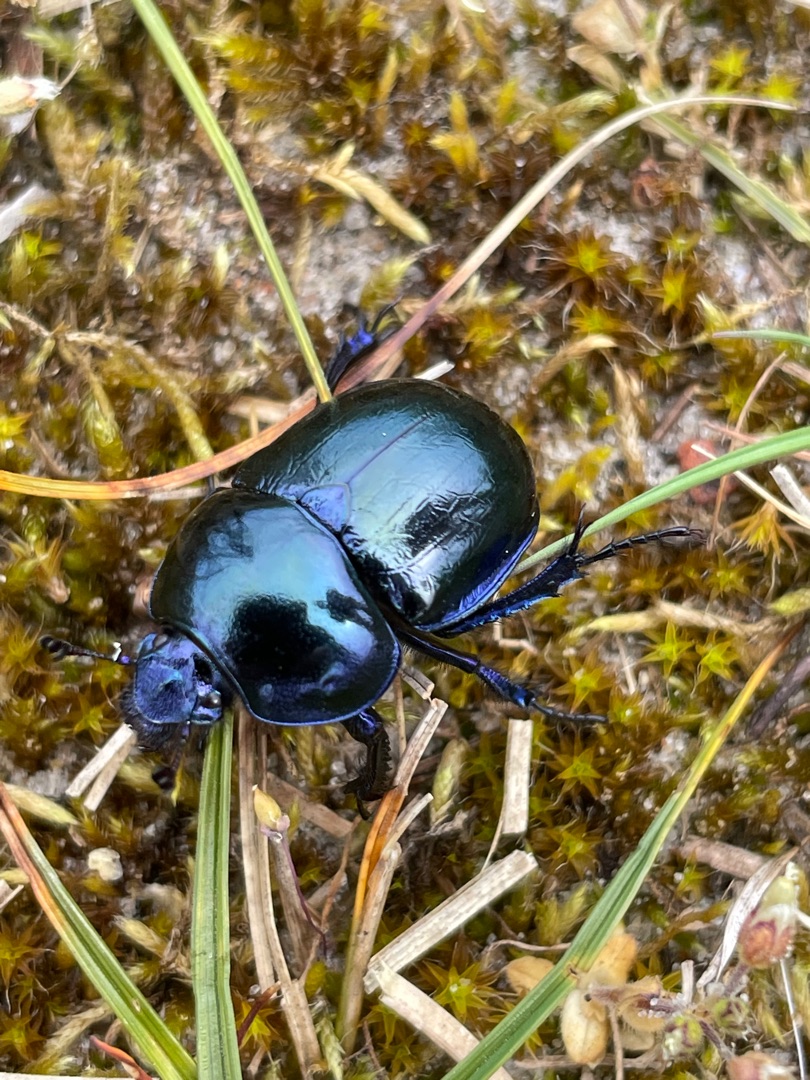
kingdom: Animalia
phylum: Arthropoda
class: Insecta
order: Coleoptera
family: Geotrupidae
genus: Trypocopris
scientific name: Trypocopris vernalis
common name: Glat skarnbasse
